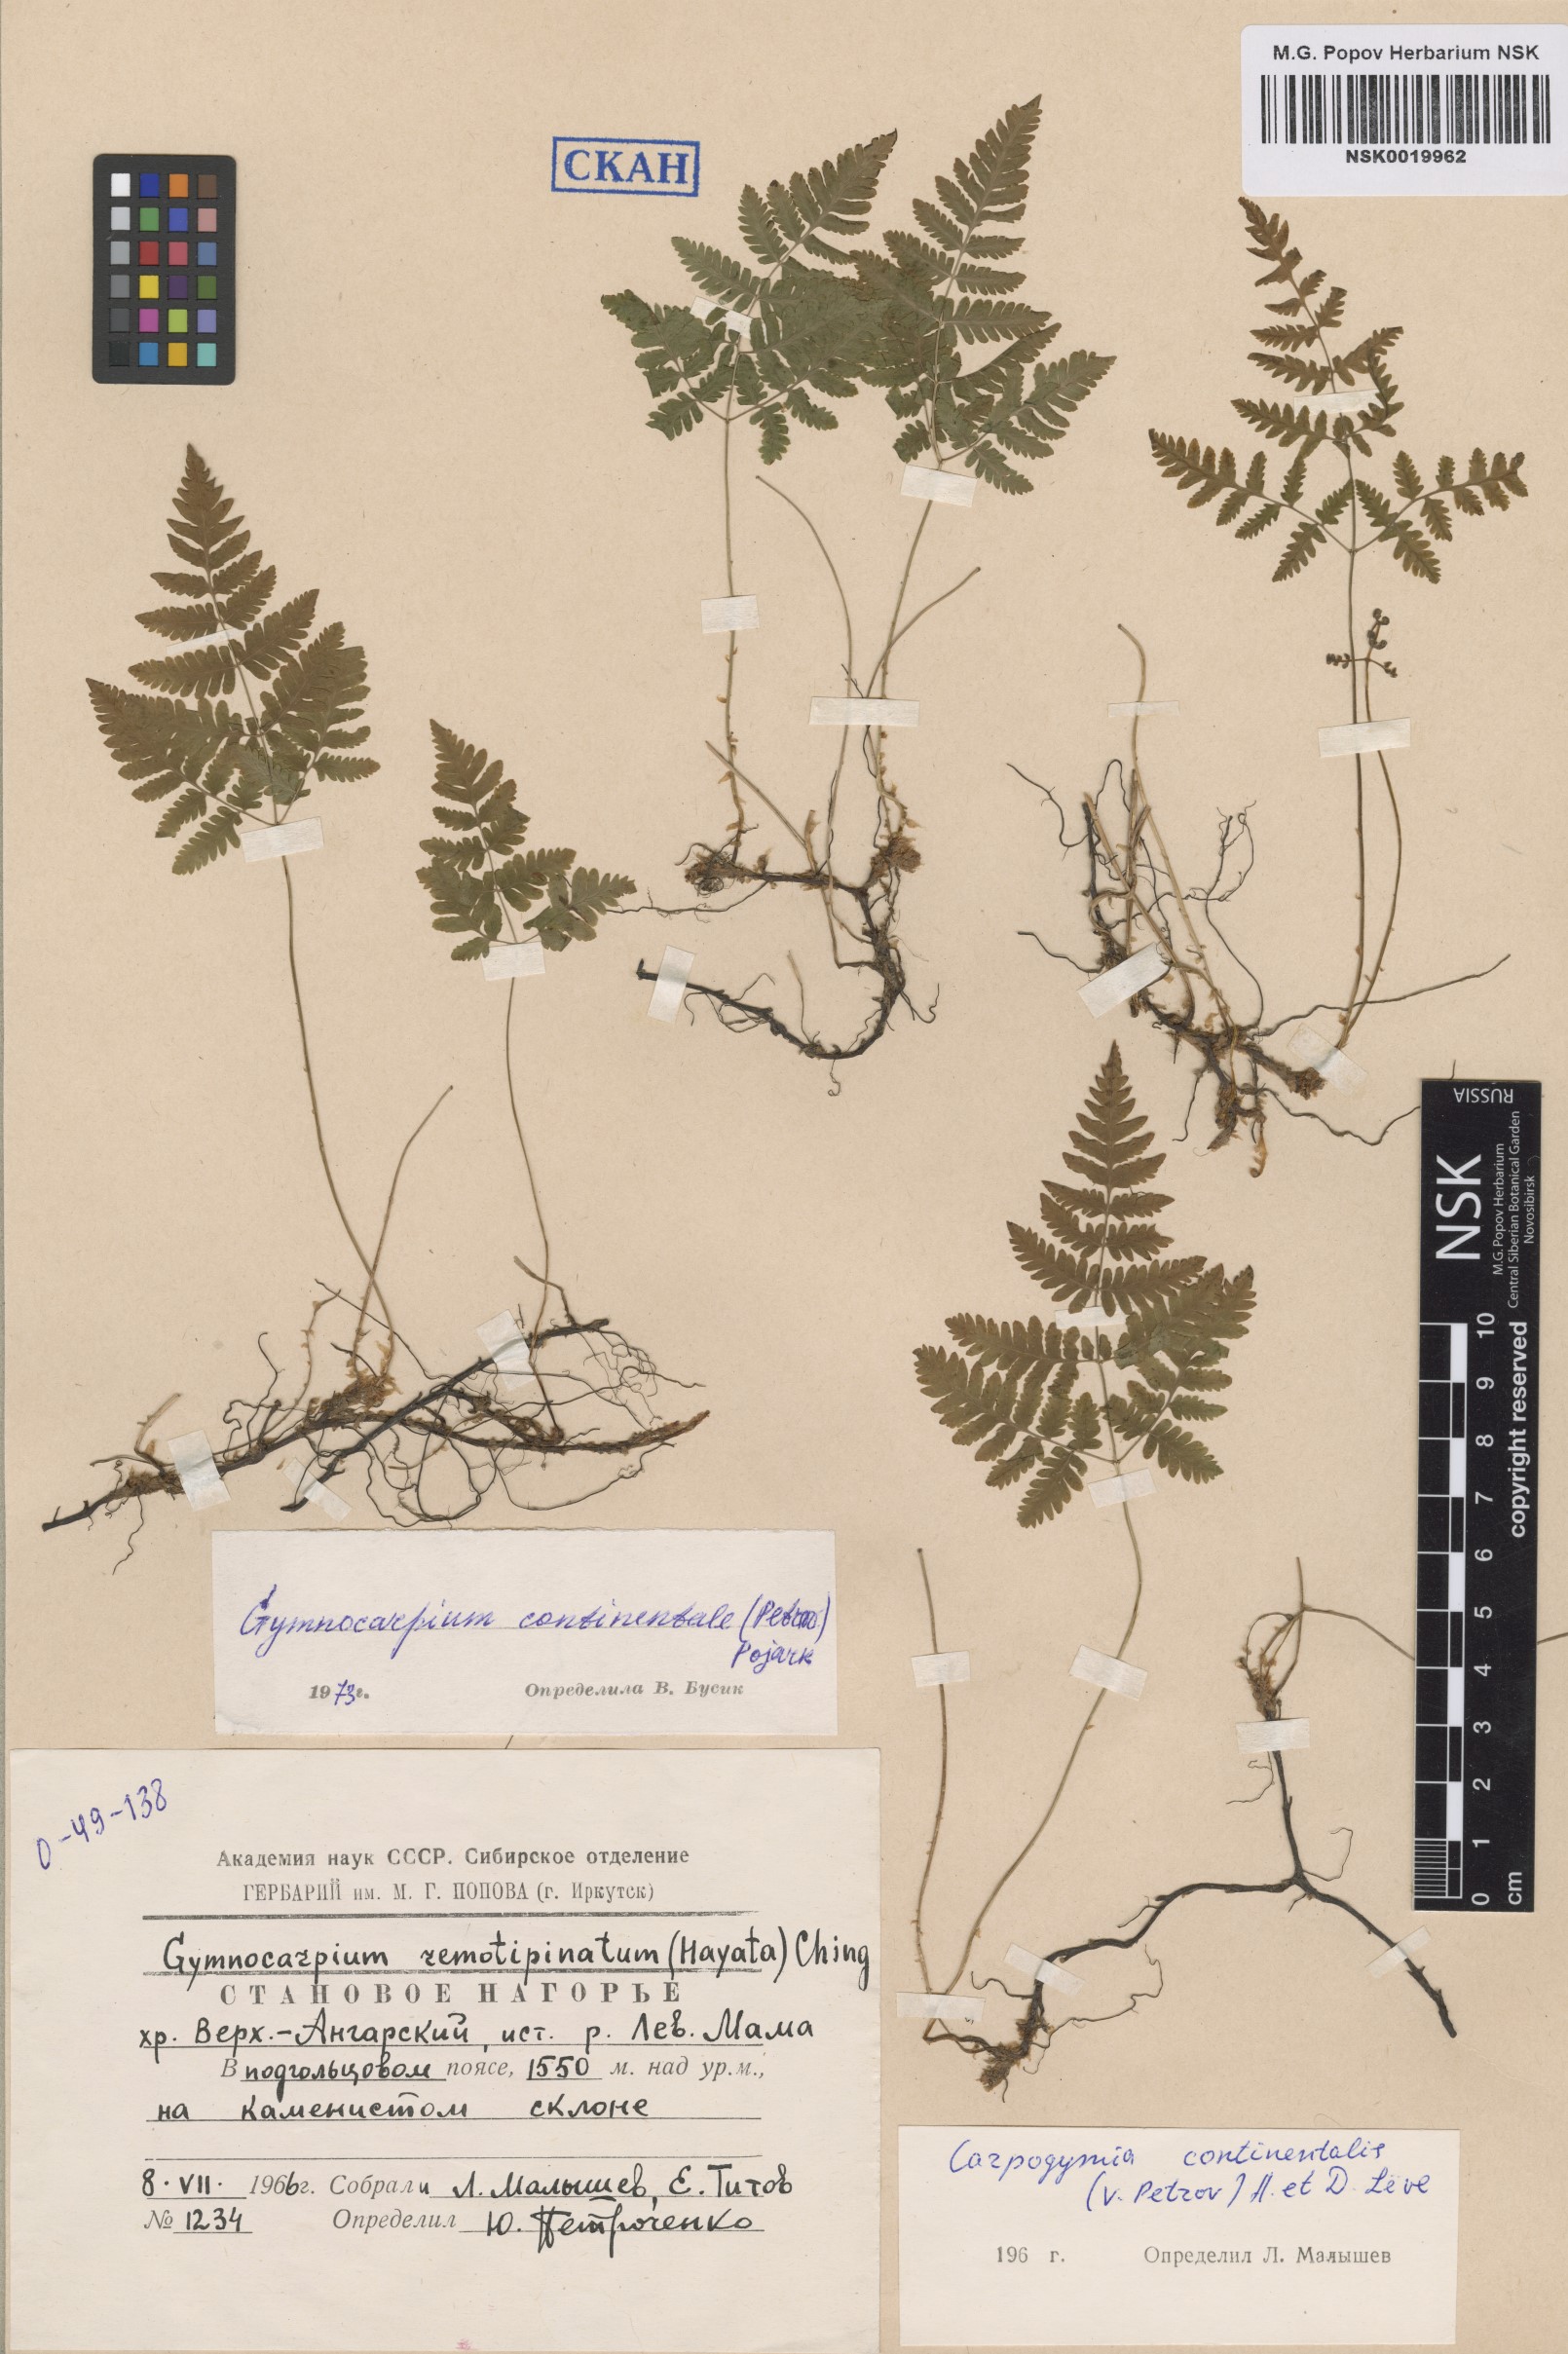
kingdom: Plantae
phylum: Tracheophyta
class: Polypodiopsida
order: Polypodiales
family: Cystopteridaceae
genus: Gymnocarpium
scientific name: Gymnocarpium continentale
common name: Asian oak fern
